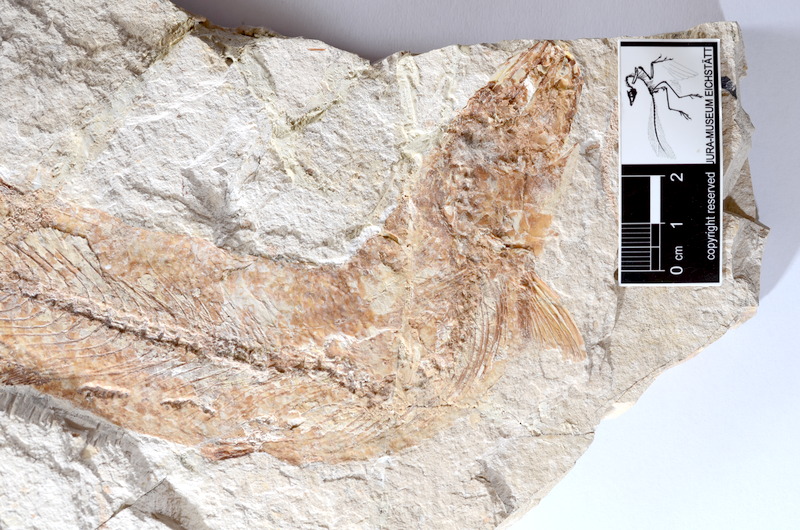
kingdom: Animalia
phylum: Chordata
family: Allothrissopidae
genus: Allothrissops
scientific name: Allothrissops
